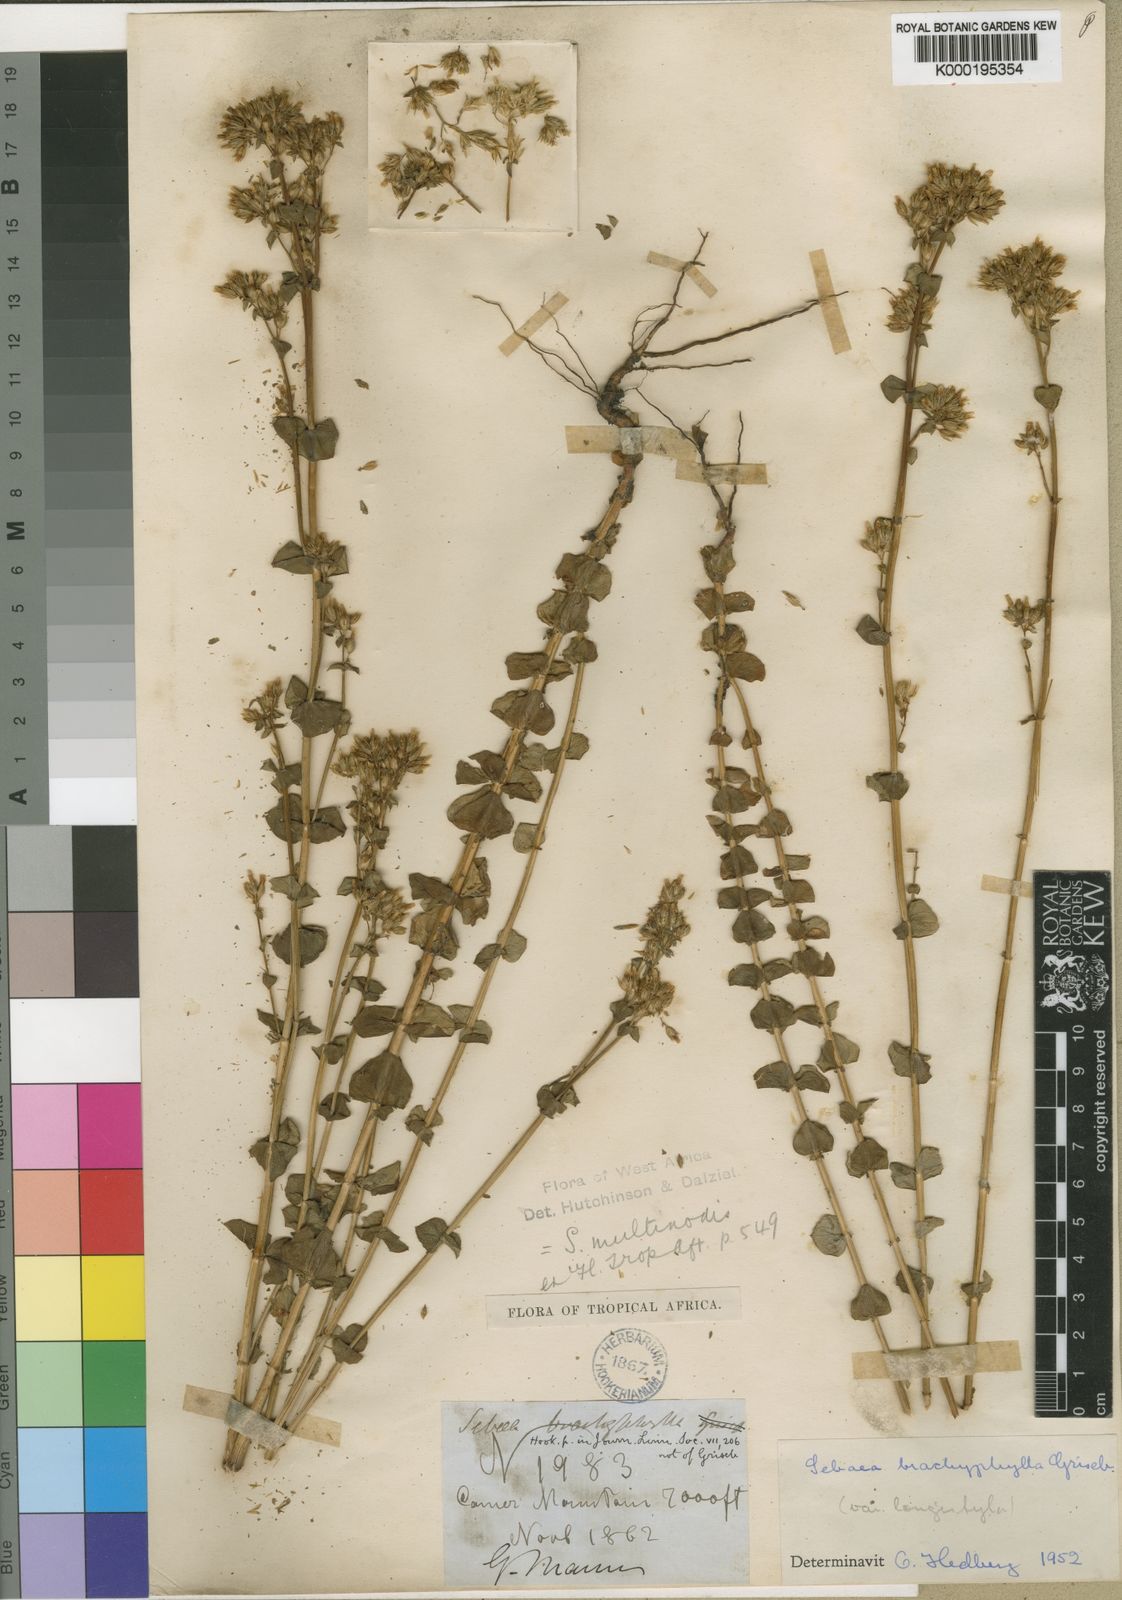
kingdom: Plantae
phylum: Tracheophyta
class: Magnoliopsida
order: Gentianales
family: Gentianaceae
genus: Sebaea
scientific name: Sebaea brachyphylla
